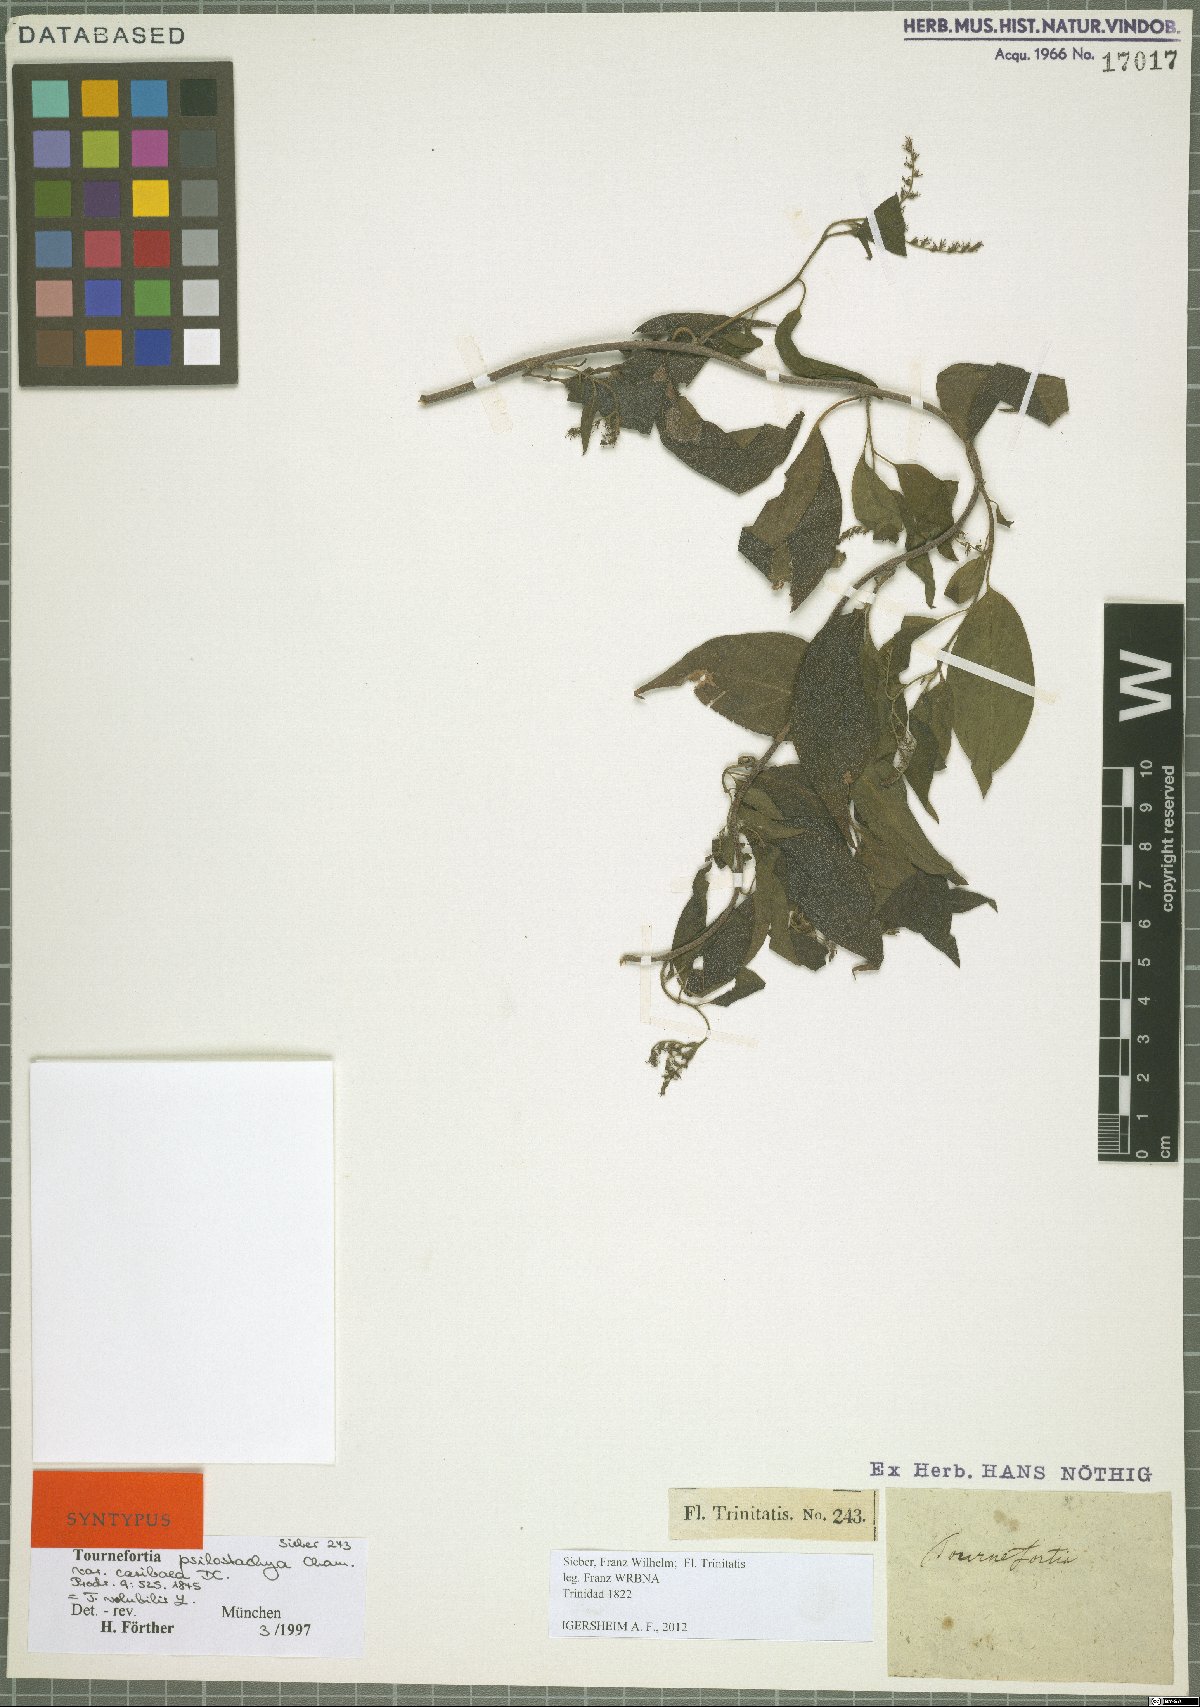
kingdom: Plantae
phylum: Tracheophyta
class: Magnoliopsida
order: Boraginales
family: Heliotropiaceae
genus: Myriopus
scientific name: Myriopus volubilis
